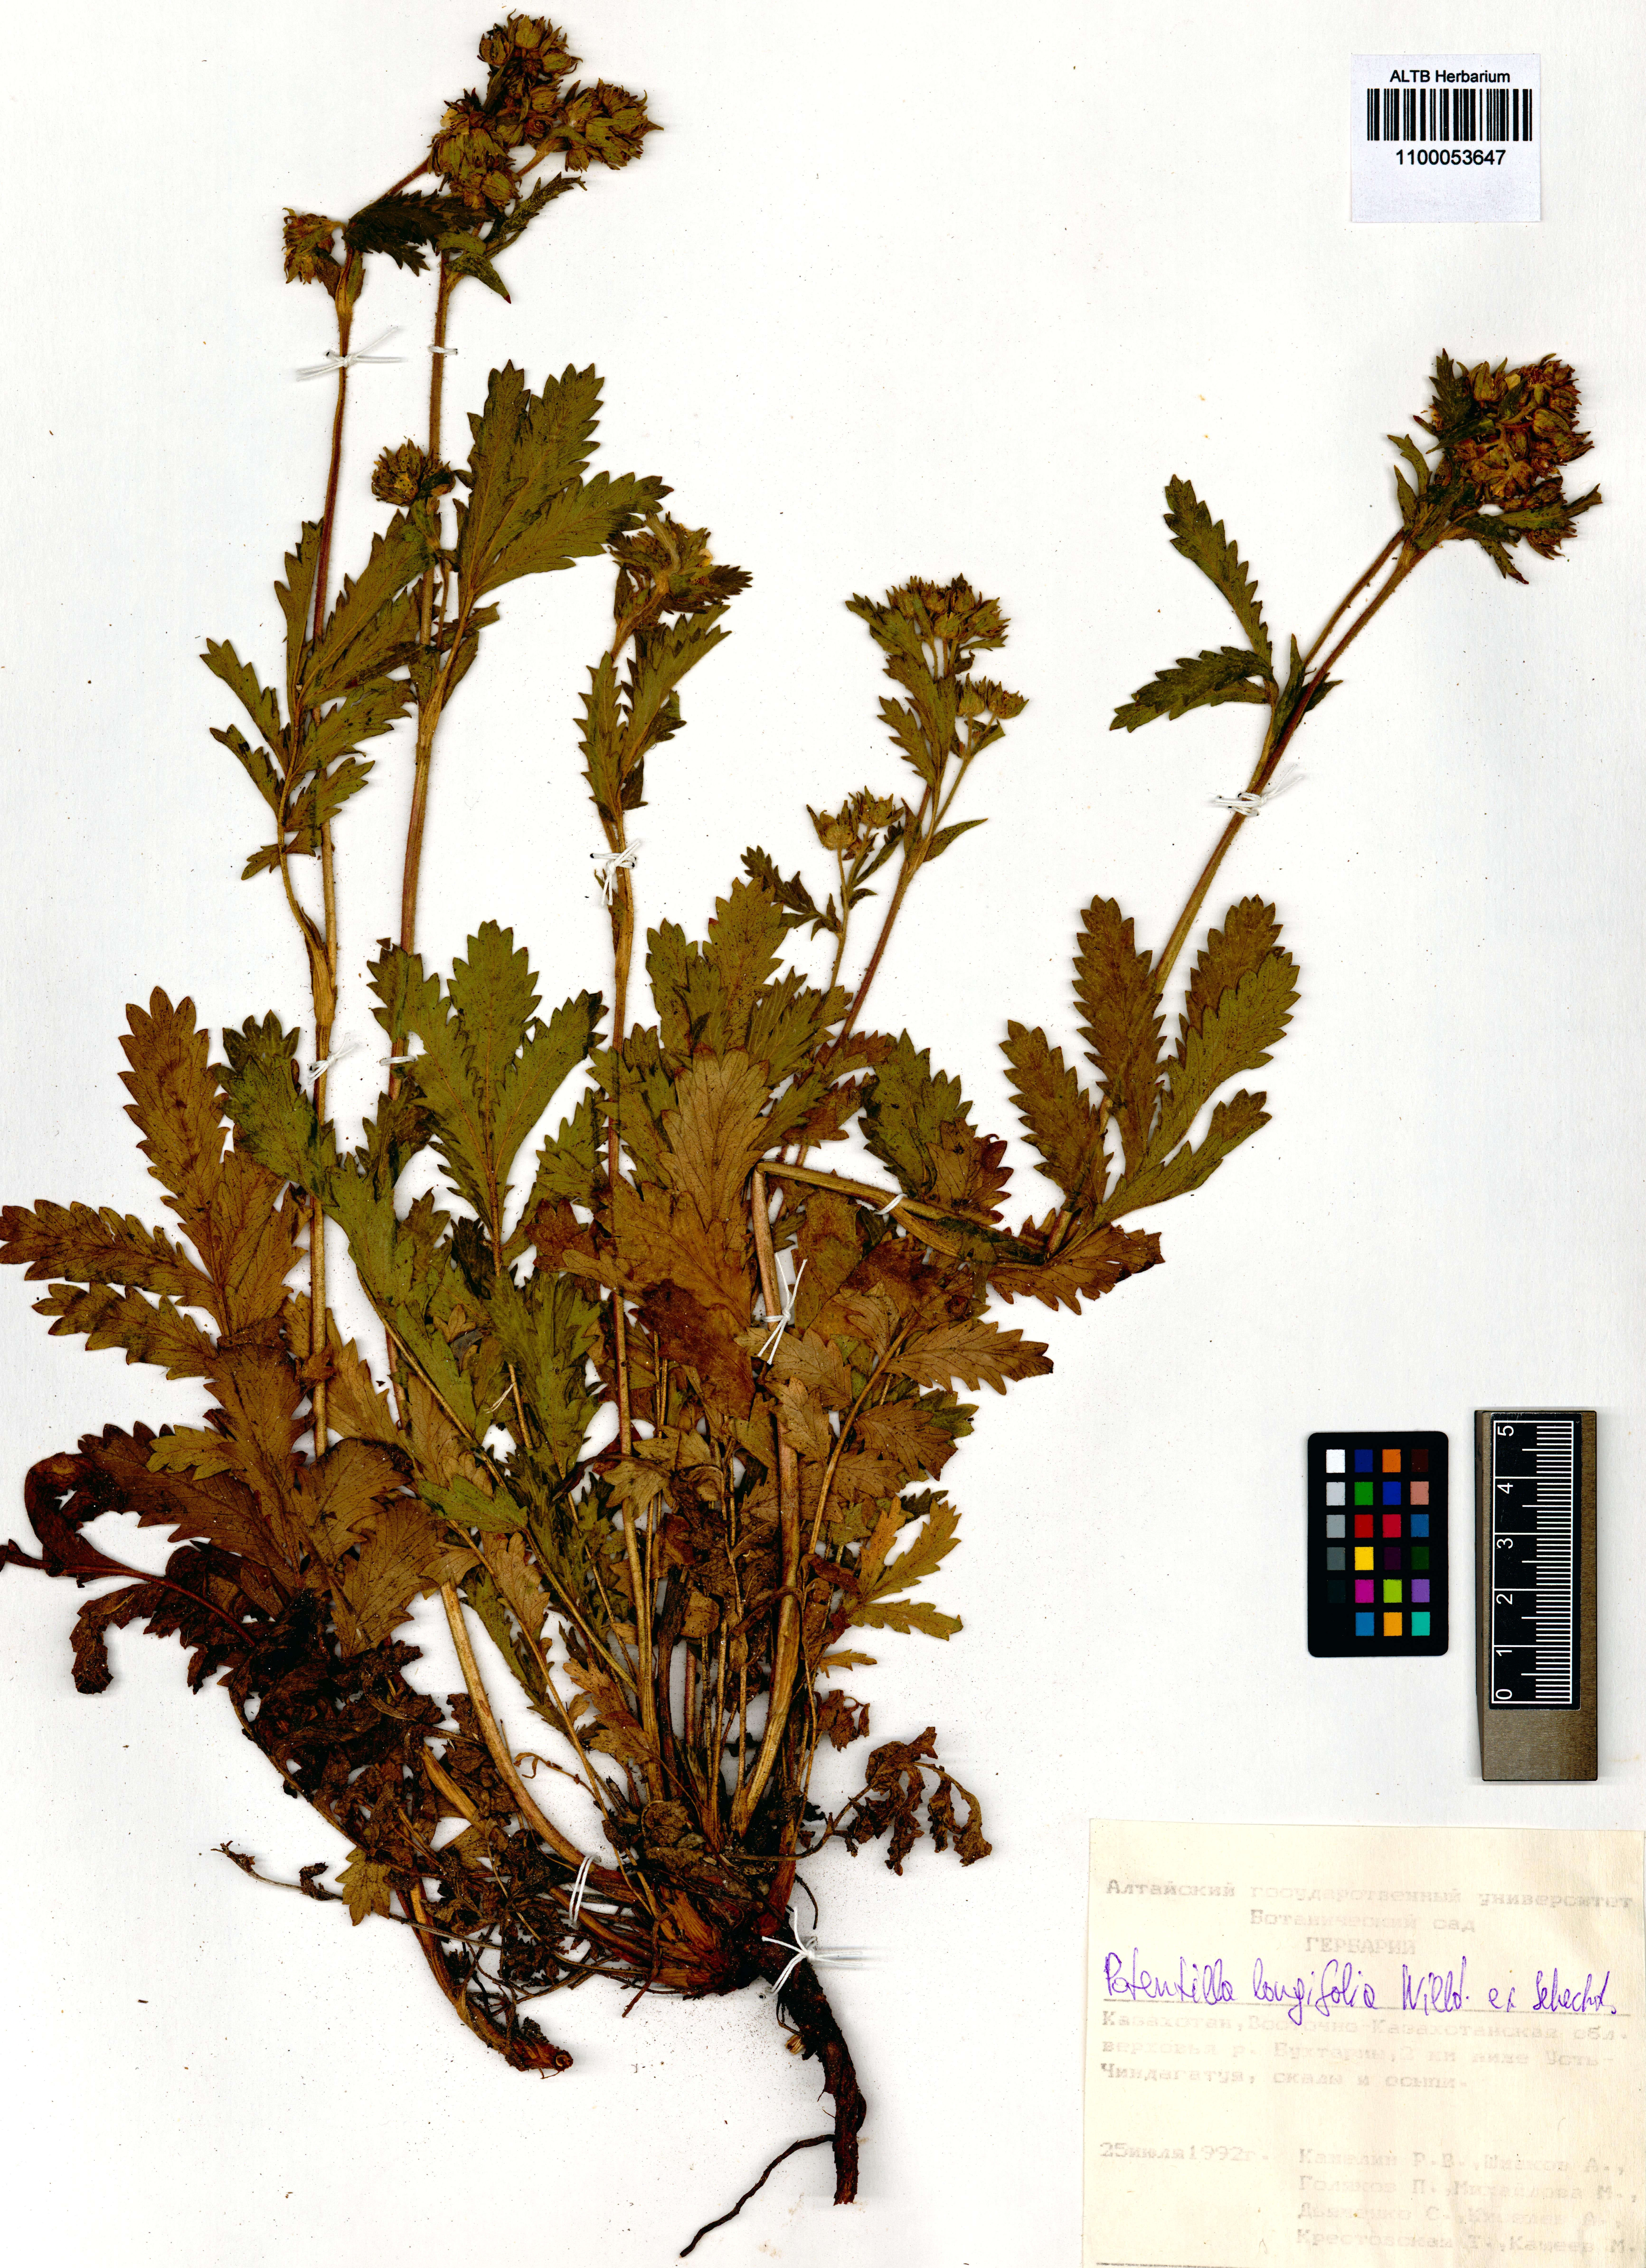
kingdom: Plantae
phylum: Tracheophyta
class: Magnoliopsida
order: Rosales
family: Rosaceae
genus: Potentilla
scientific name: Potentilla longifolia
